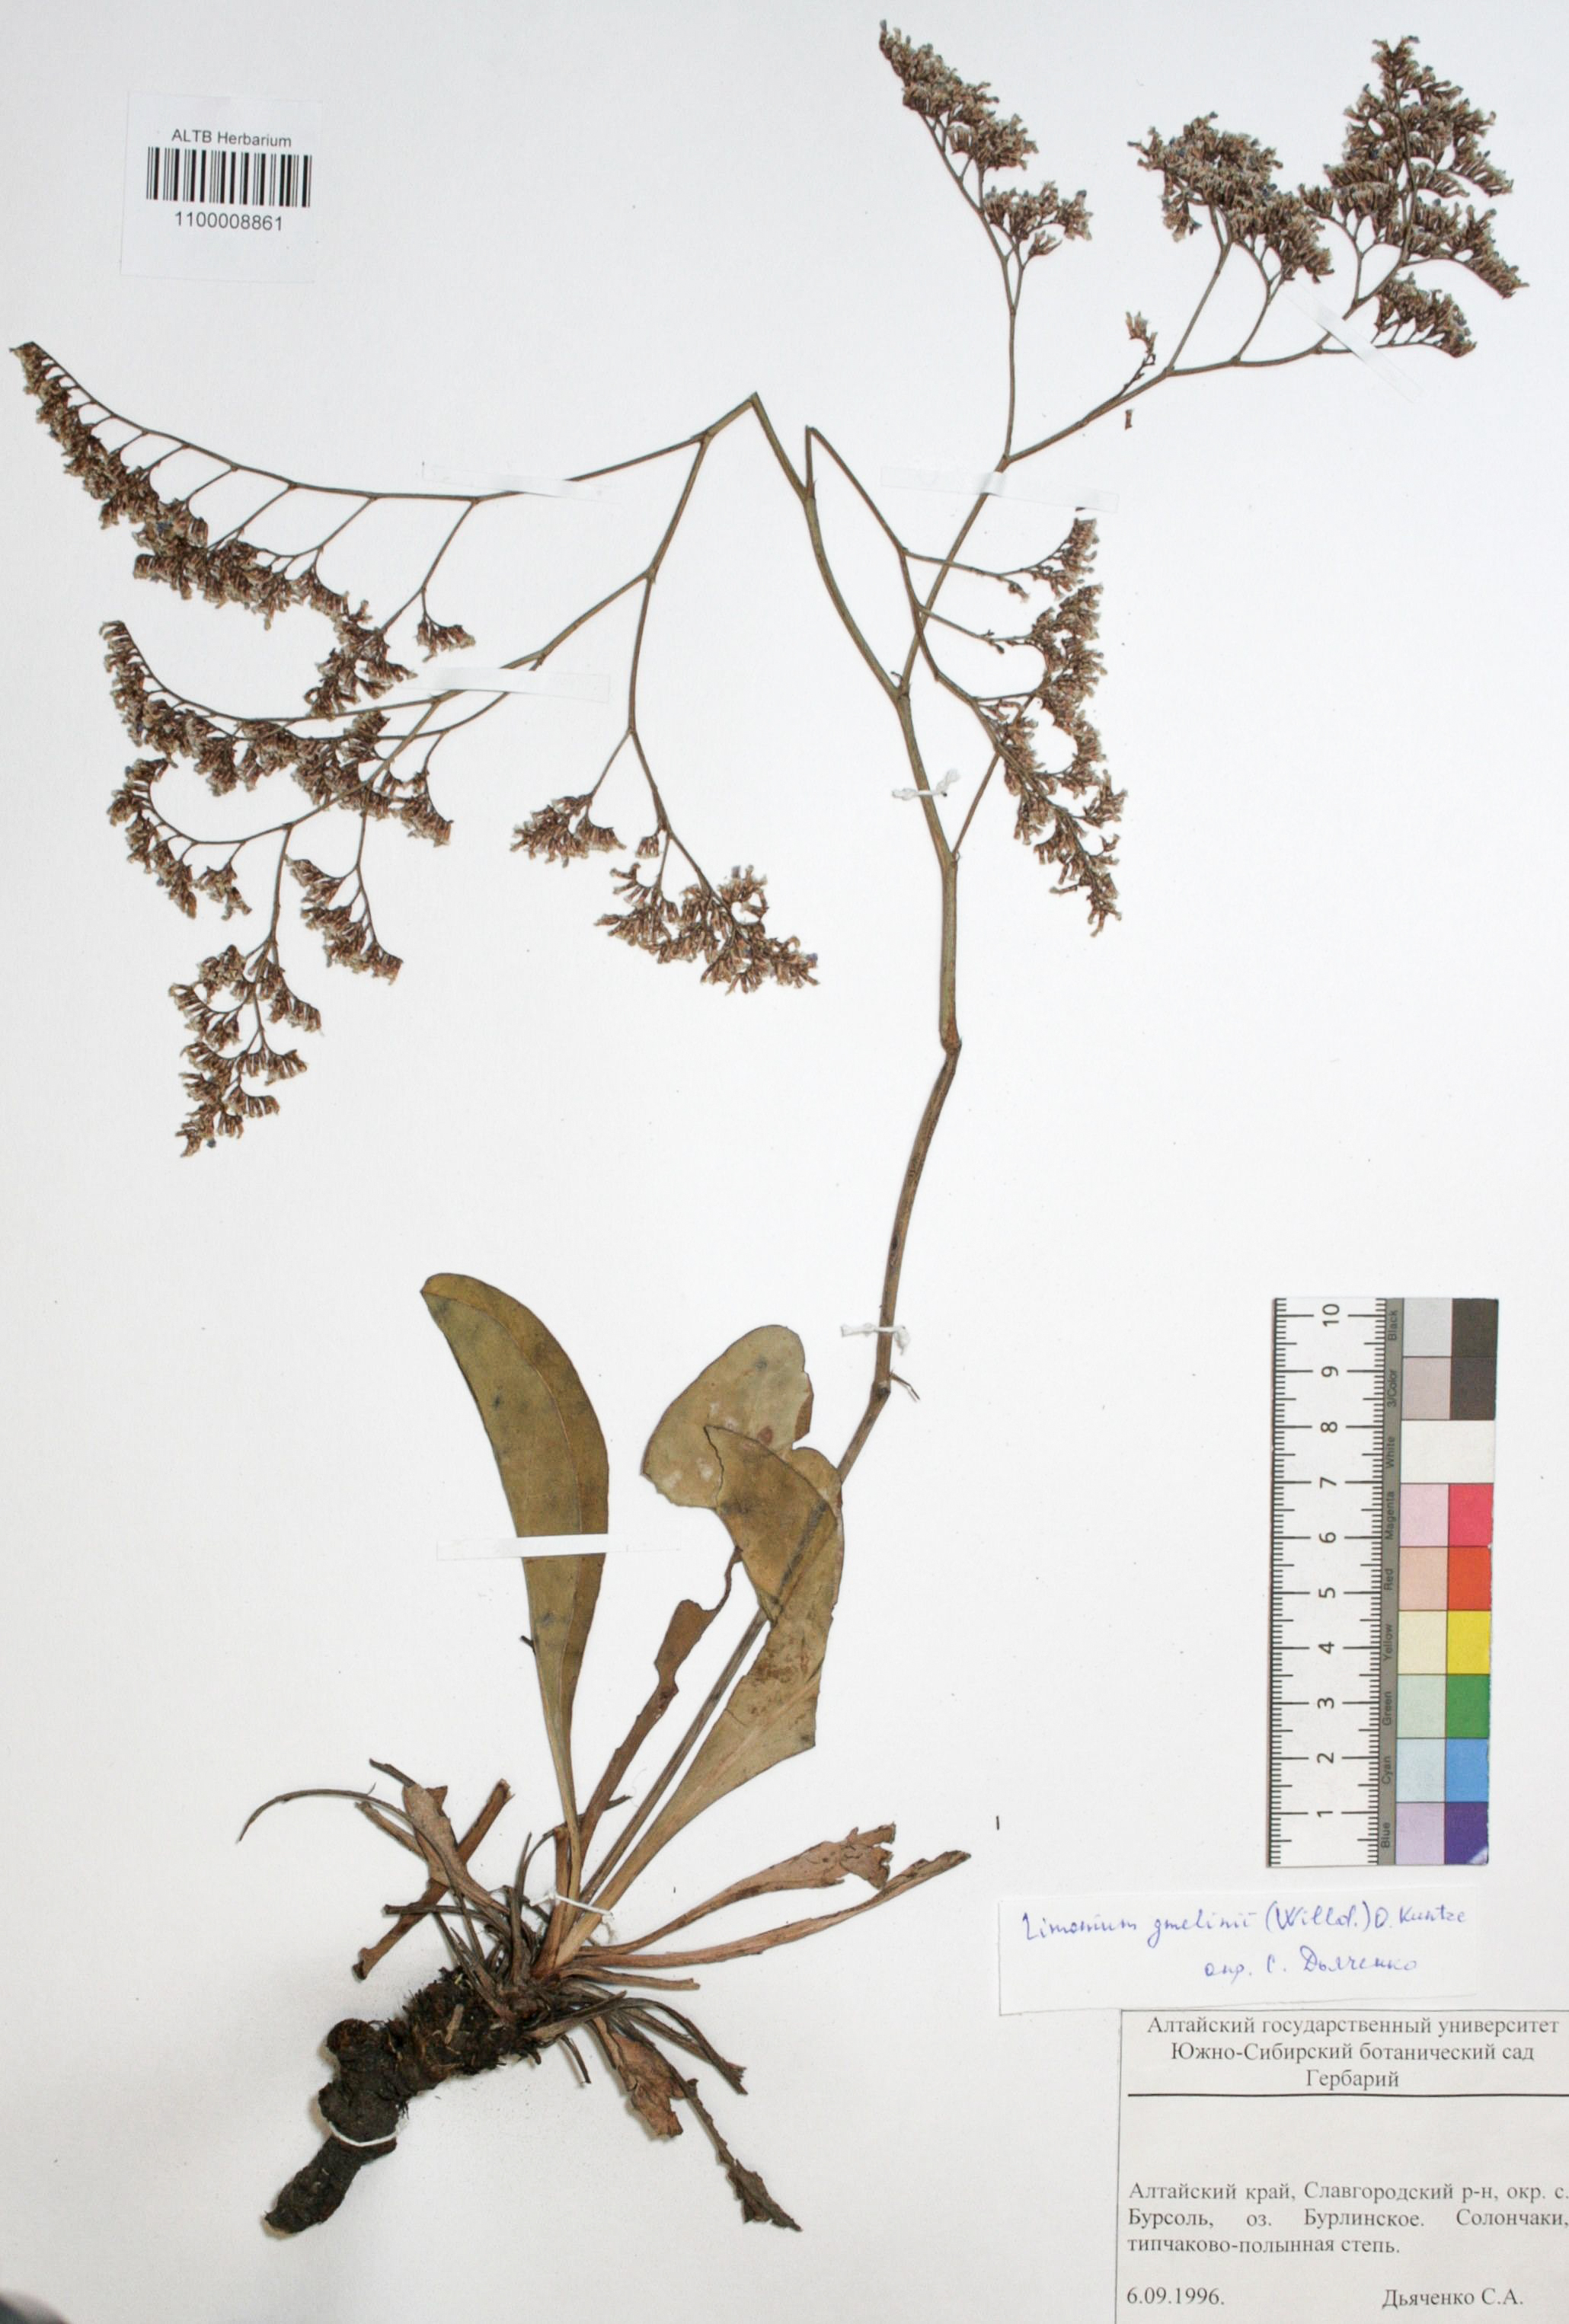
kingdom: Plantae
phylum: Tracheophyta
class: Magnoliopsida
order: Caryophyllales
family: Plumbaginaceae
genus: Limonium
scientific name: Limonium gmelini
